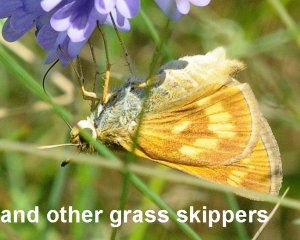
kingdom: Animalia
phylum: Arthropoda
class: Insecta
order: Lepidoptera
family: Hesperiidae
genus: Polites
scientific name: Polites
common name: Long Dash Skipper
